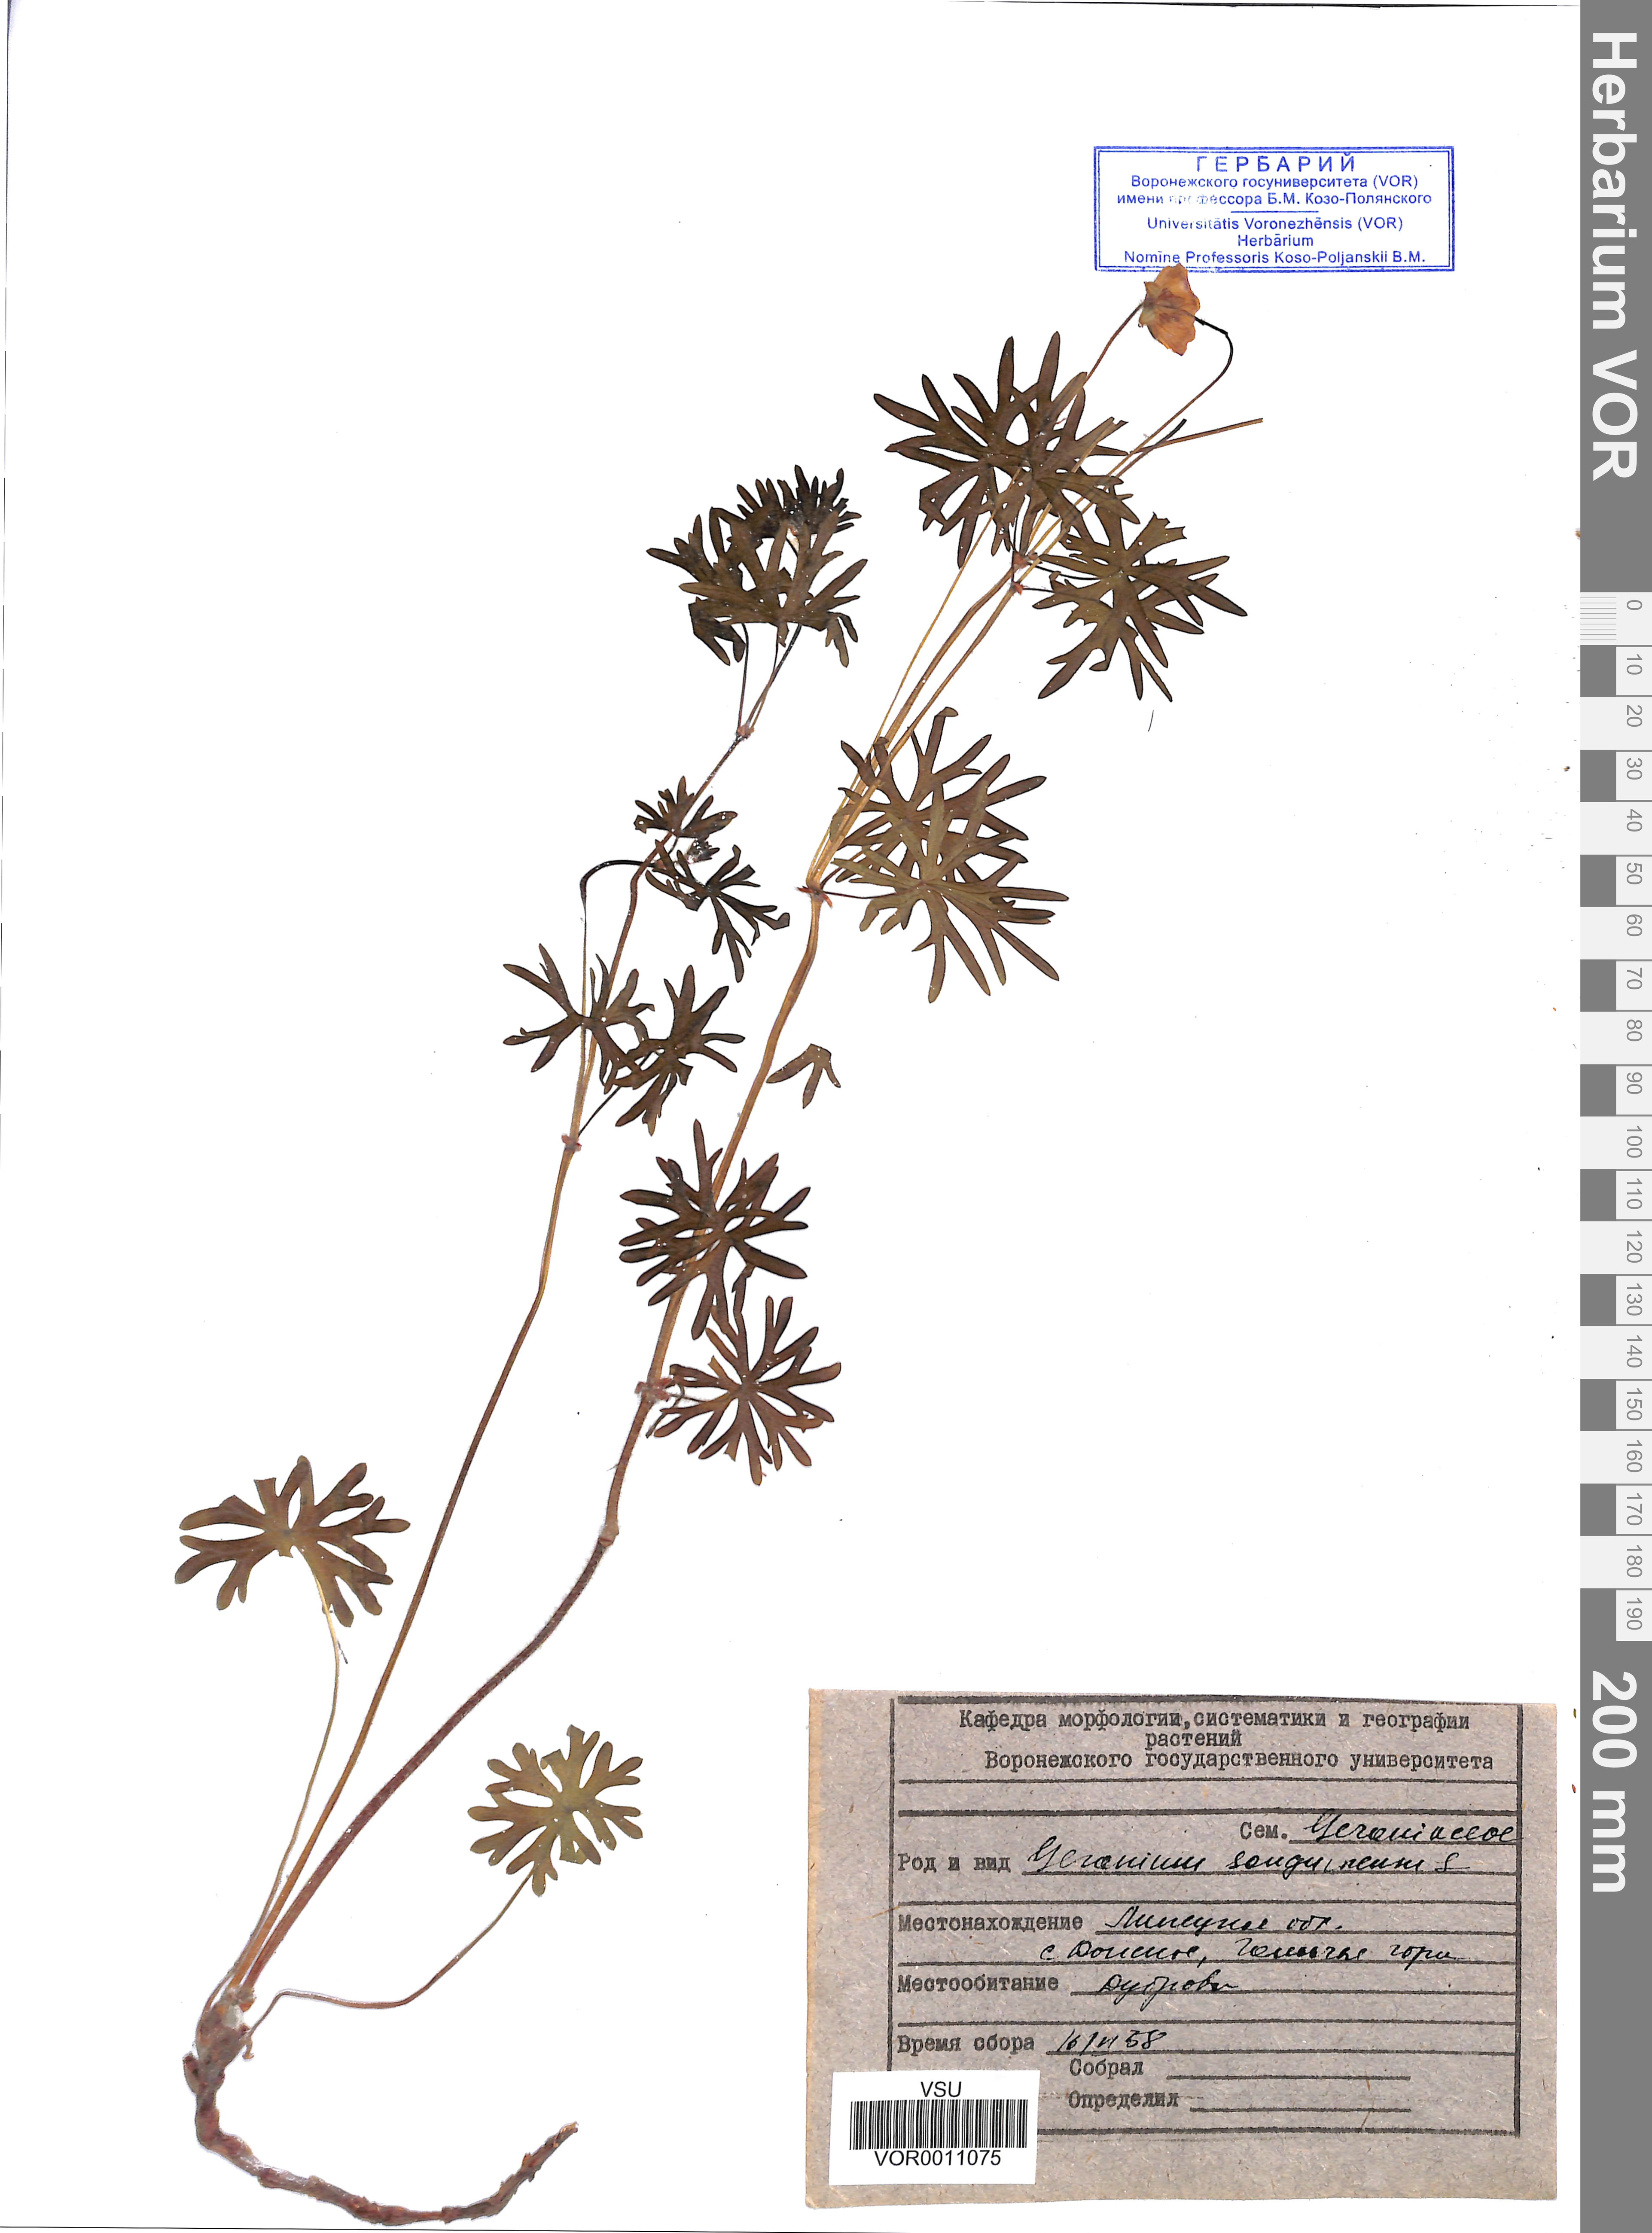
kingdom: Plantae
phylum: Tracheophyta
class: Magnoliopsida
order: Geraniales
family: Geraniaceae
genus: Geranium
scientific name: Geranium sanguineum
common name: Bloody crane's-bill
